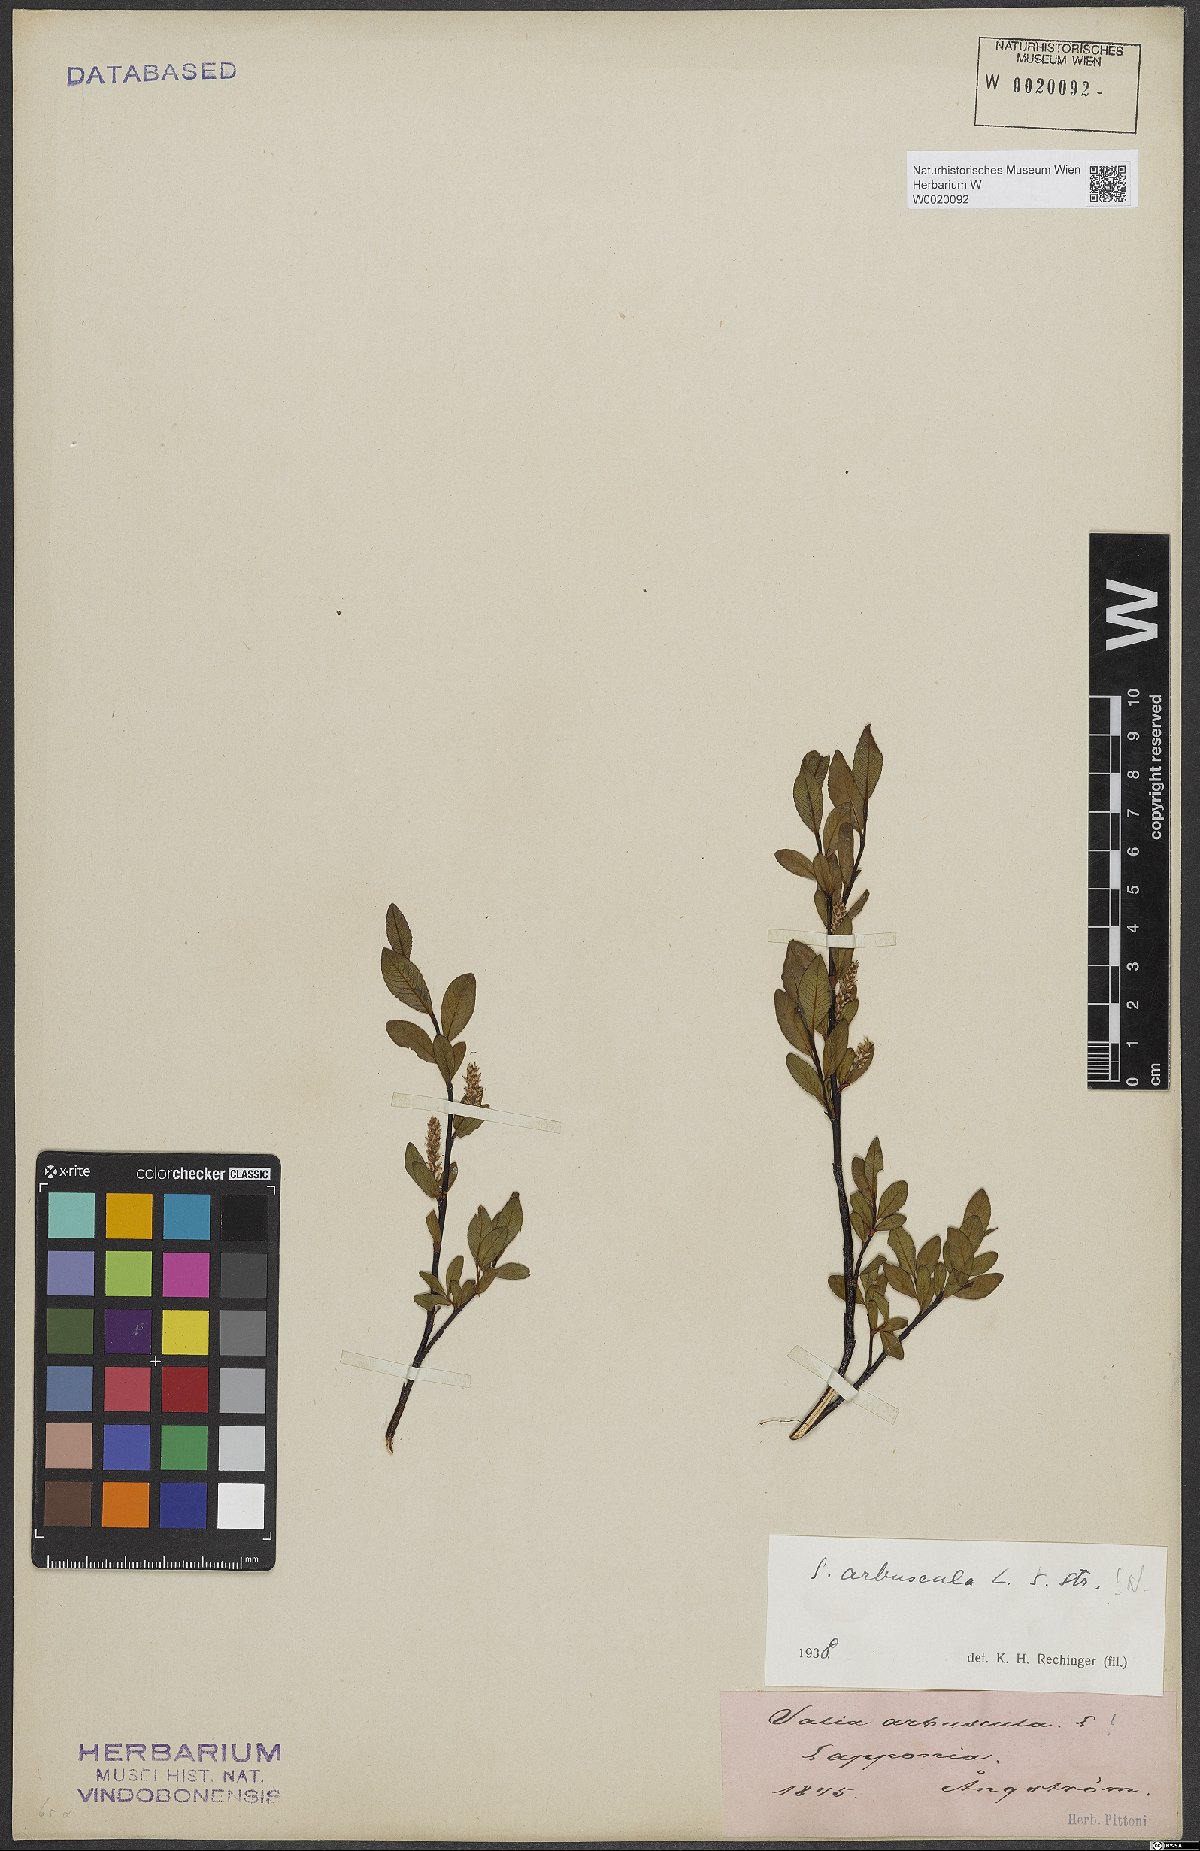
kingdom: Plantae
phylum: Tracheophyta
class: Magnoliopsida
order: Malpighiales
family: Salicaceae
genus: Salix
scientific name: Salix arbuscula
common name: Mountain willow
